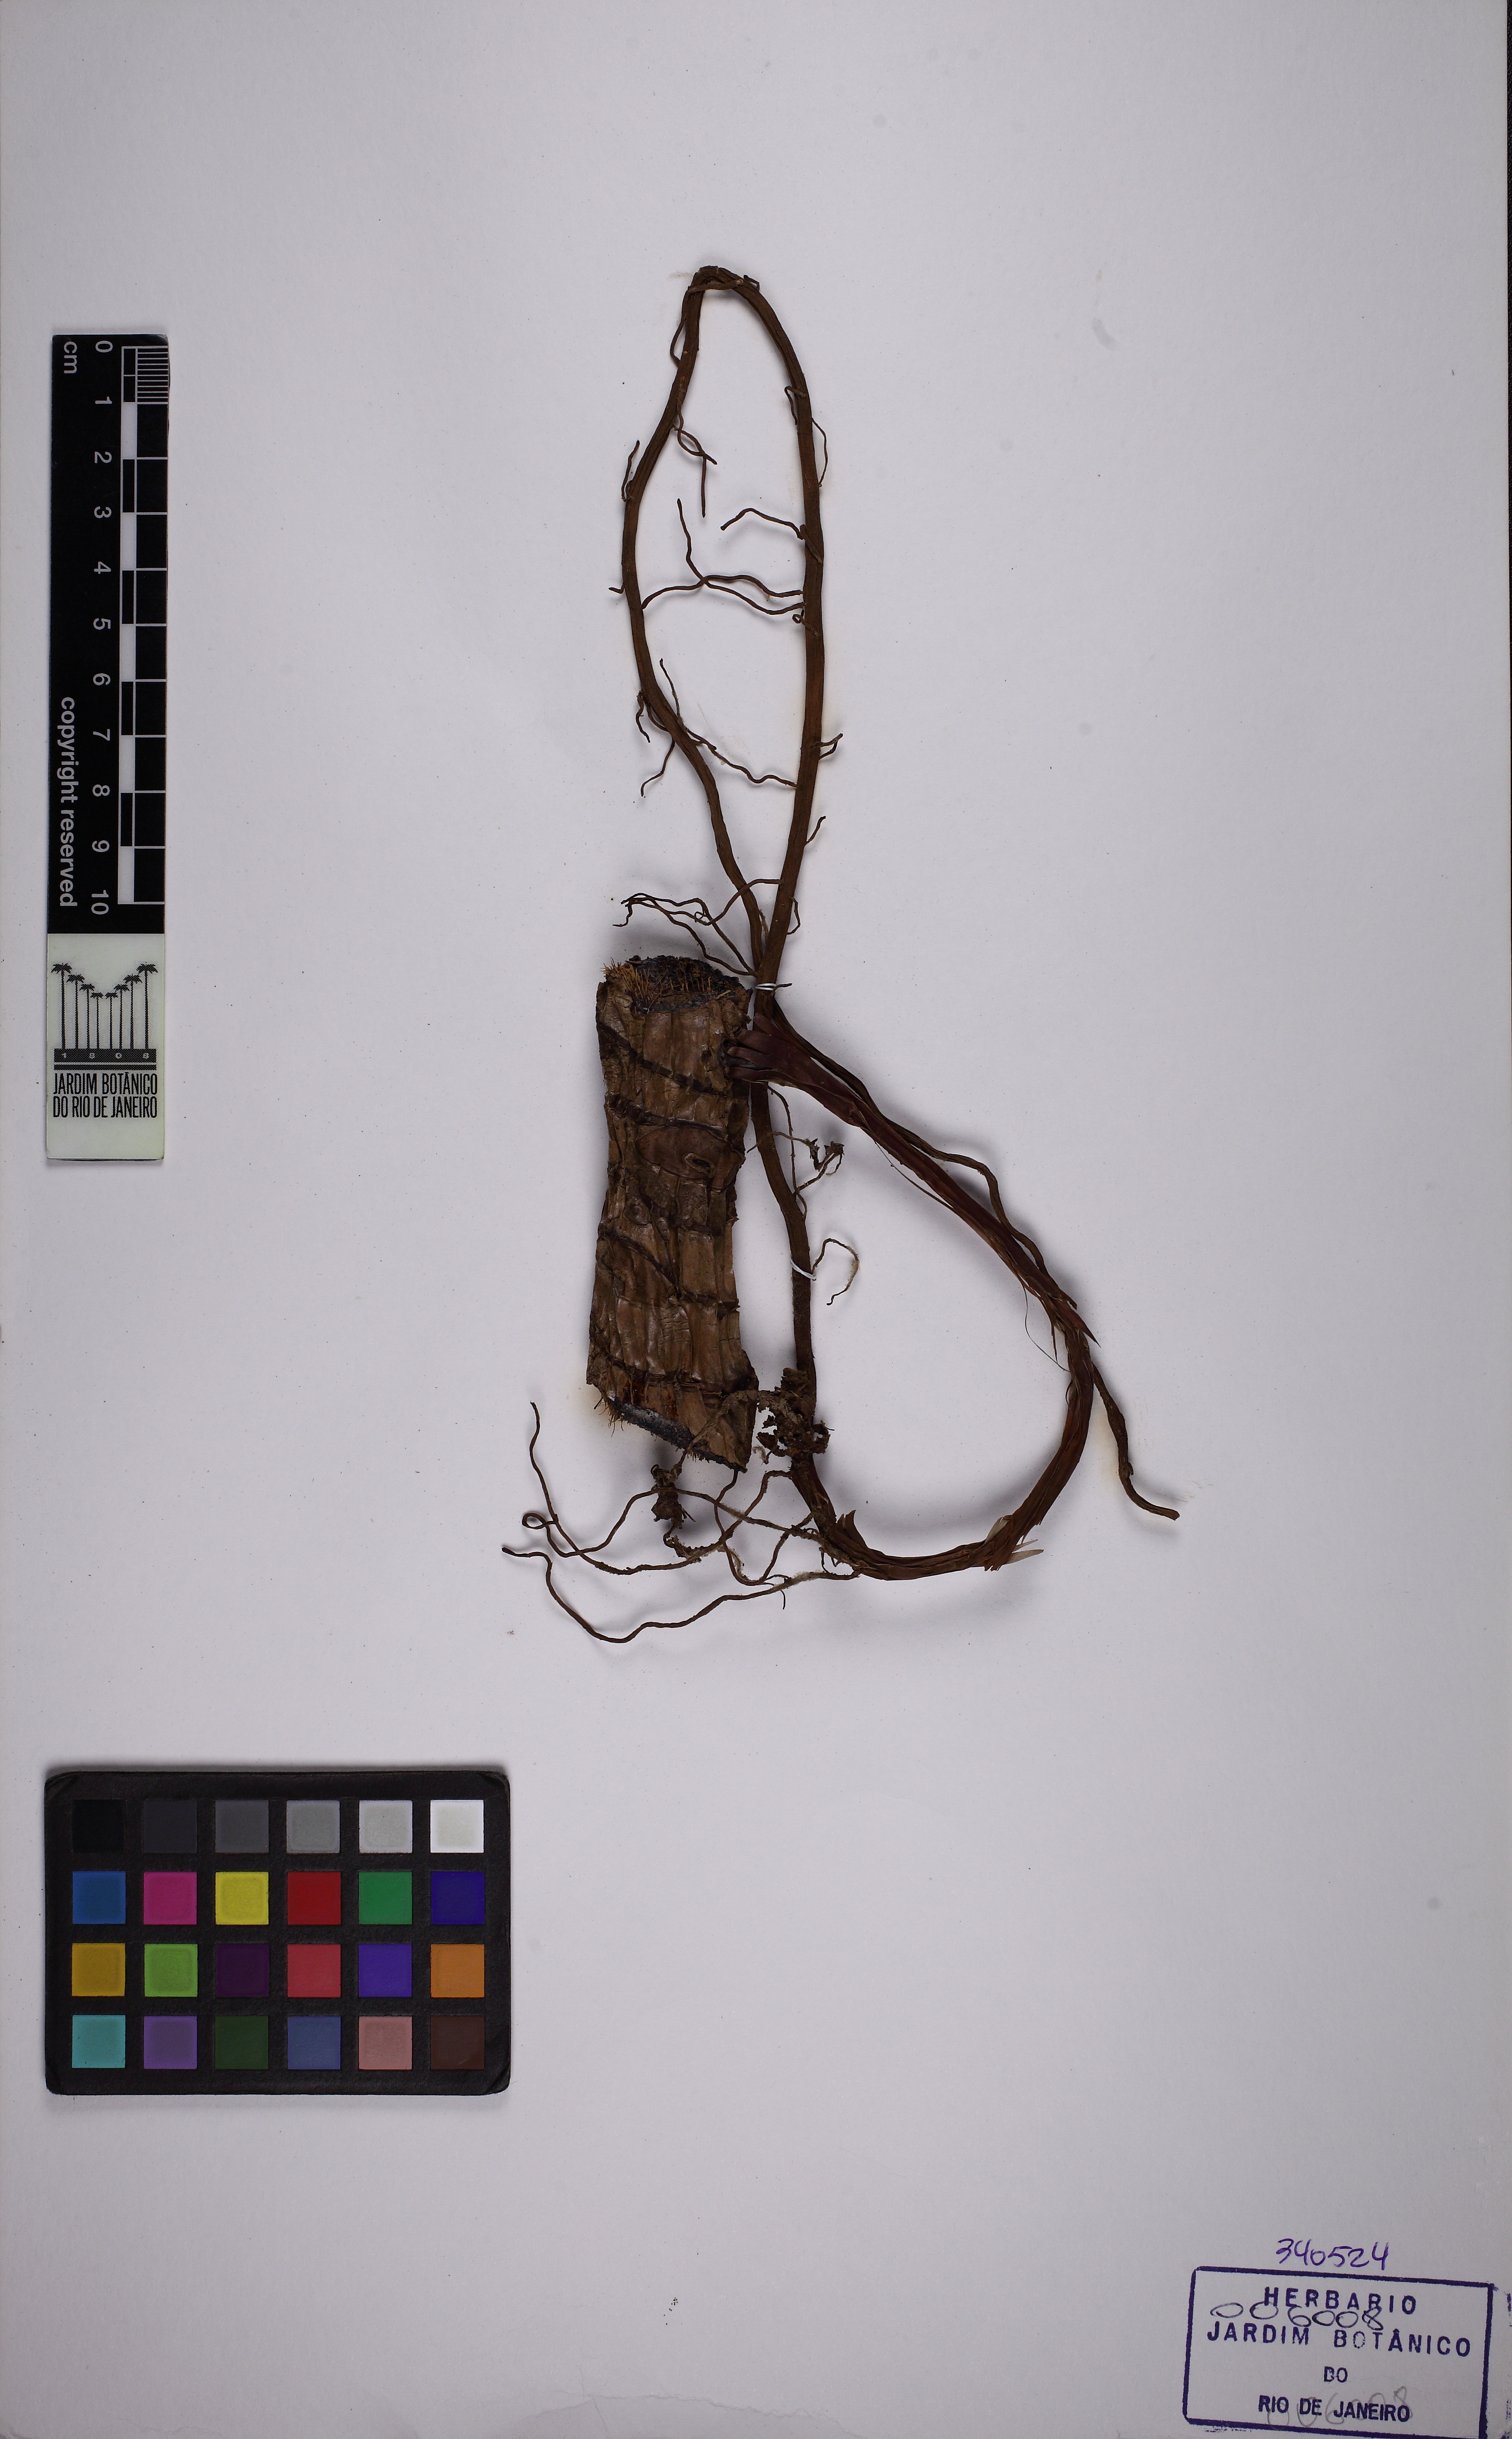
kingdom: Plantae
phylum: Tracheophyta
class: Liliopsida
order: Alismatales
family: Araceae
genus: Philodendron
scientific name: Philodendron vargealtense
